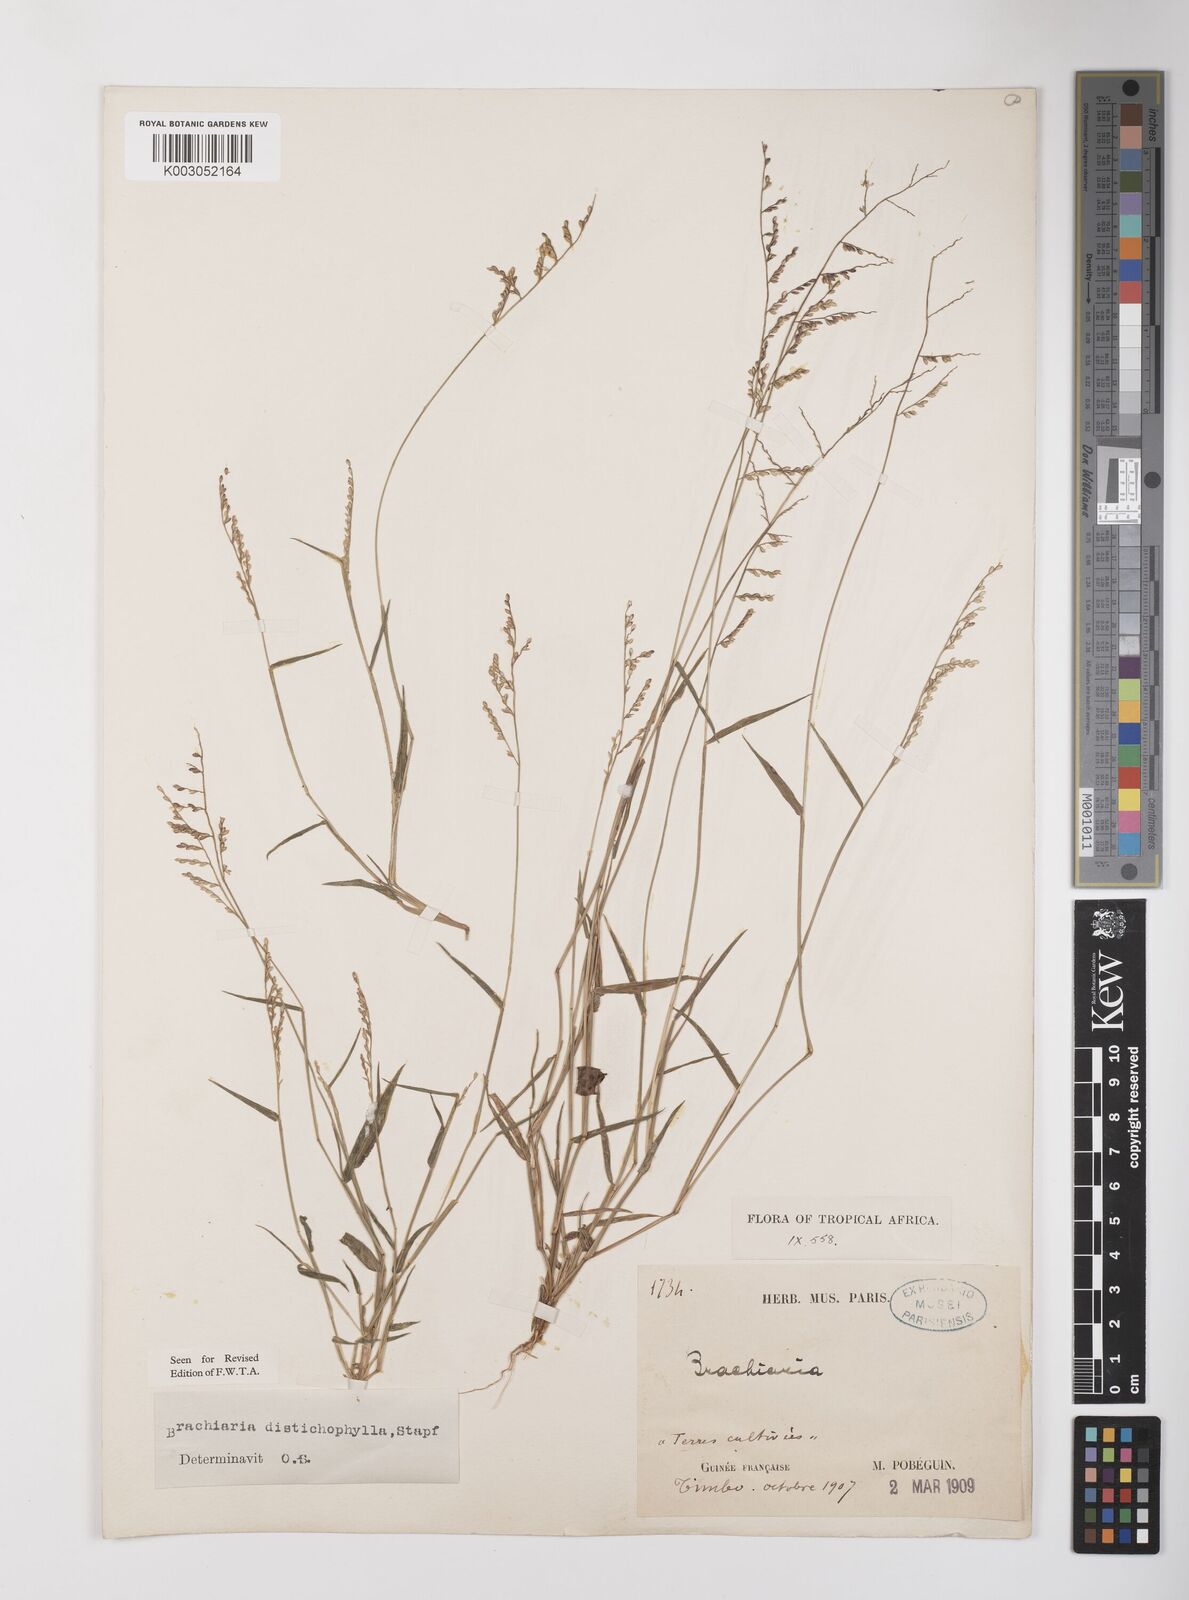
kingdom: Plantae
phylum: Tracheophyta
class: Liliopsida
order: Poales
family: Poaceae
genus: Urochloa
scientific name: Urochloa villosa
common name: Hairy signalgrass
